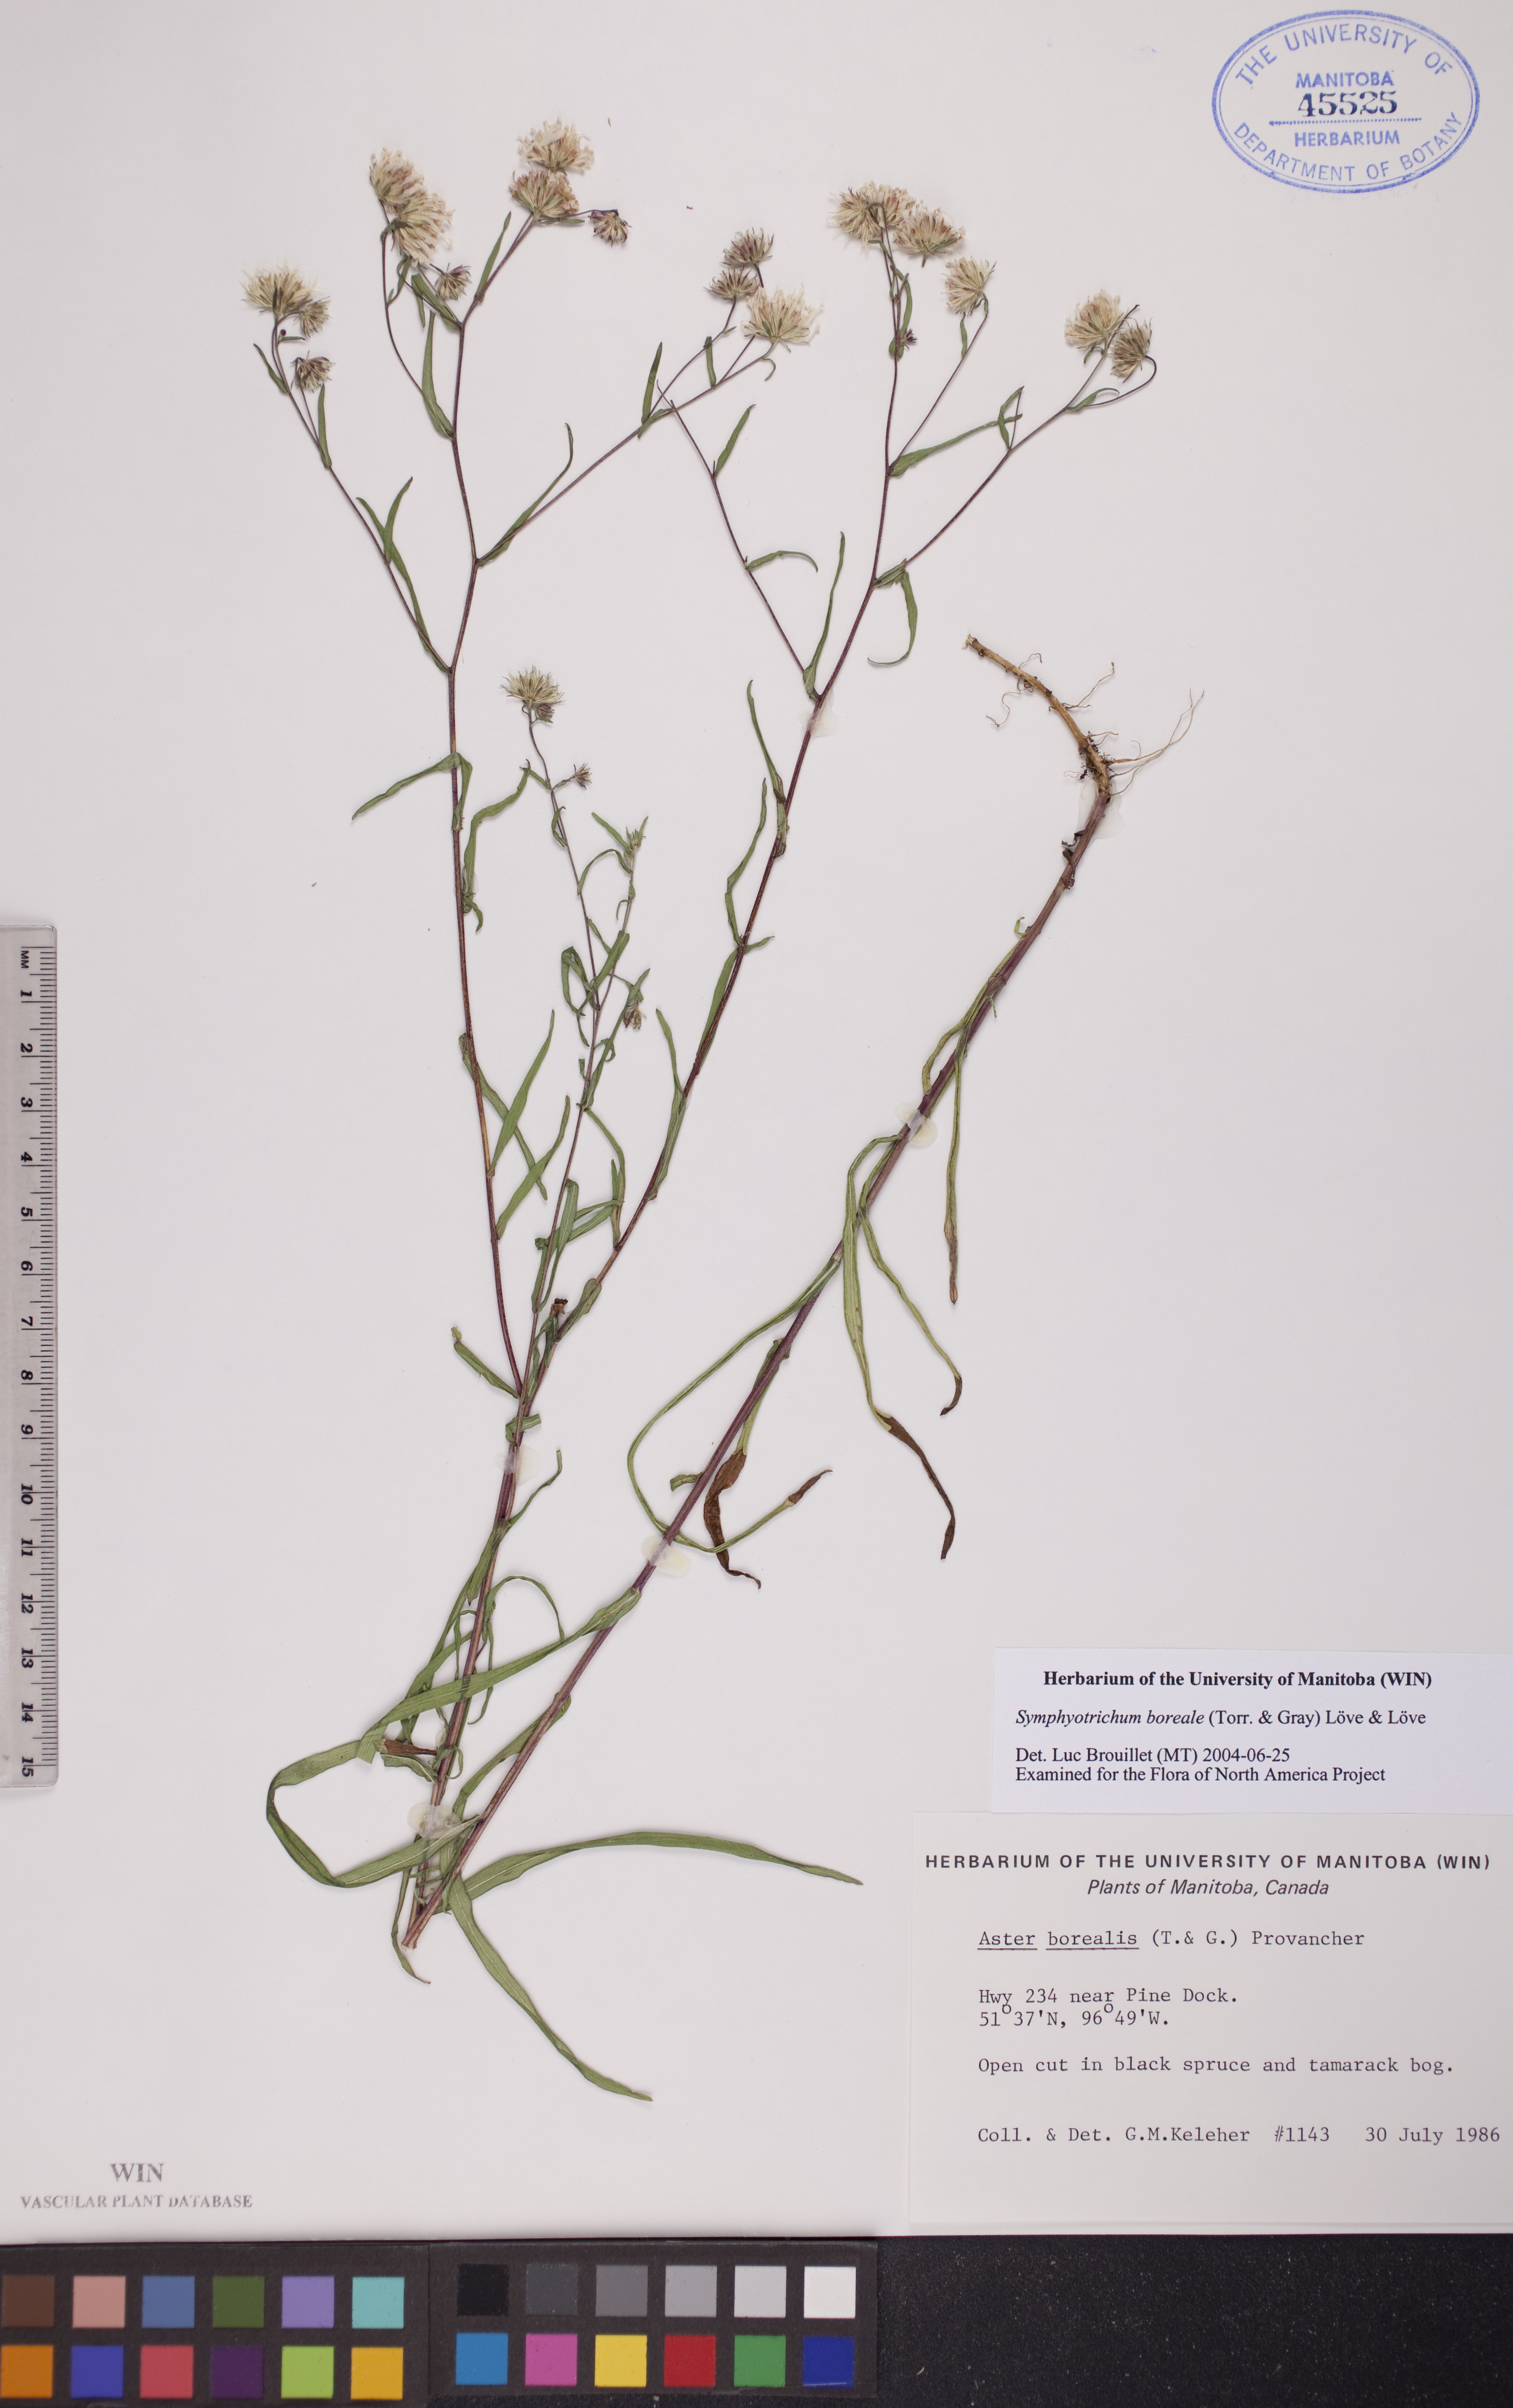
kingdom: Plantae
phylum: Tracheophyta
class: Magnoliopsida
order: Asterales
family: Asteraceae
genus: Symphyotrichum
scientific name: Symphyotrichum boreale
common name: Northern bog aster
